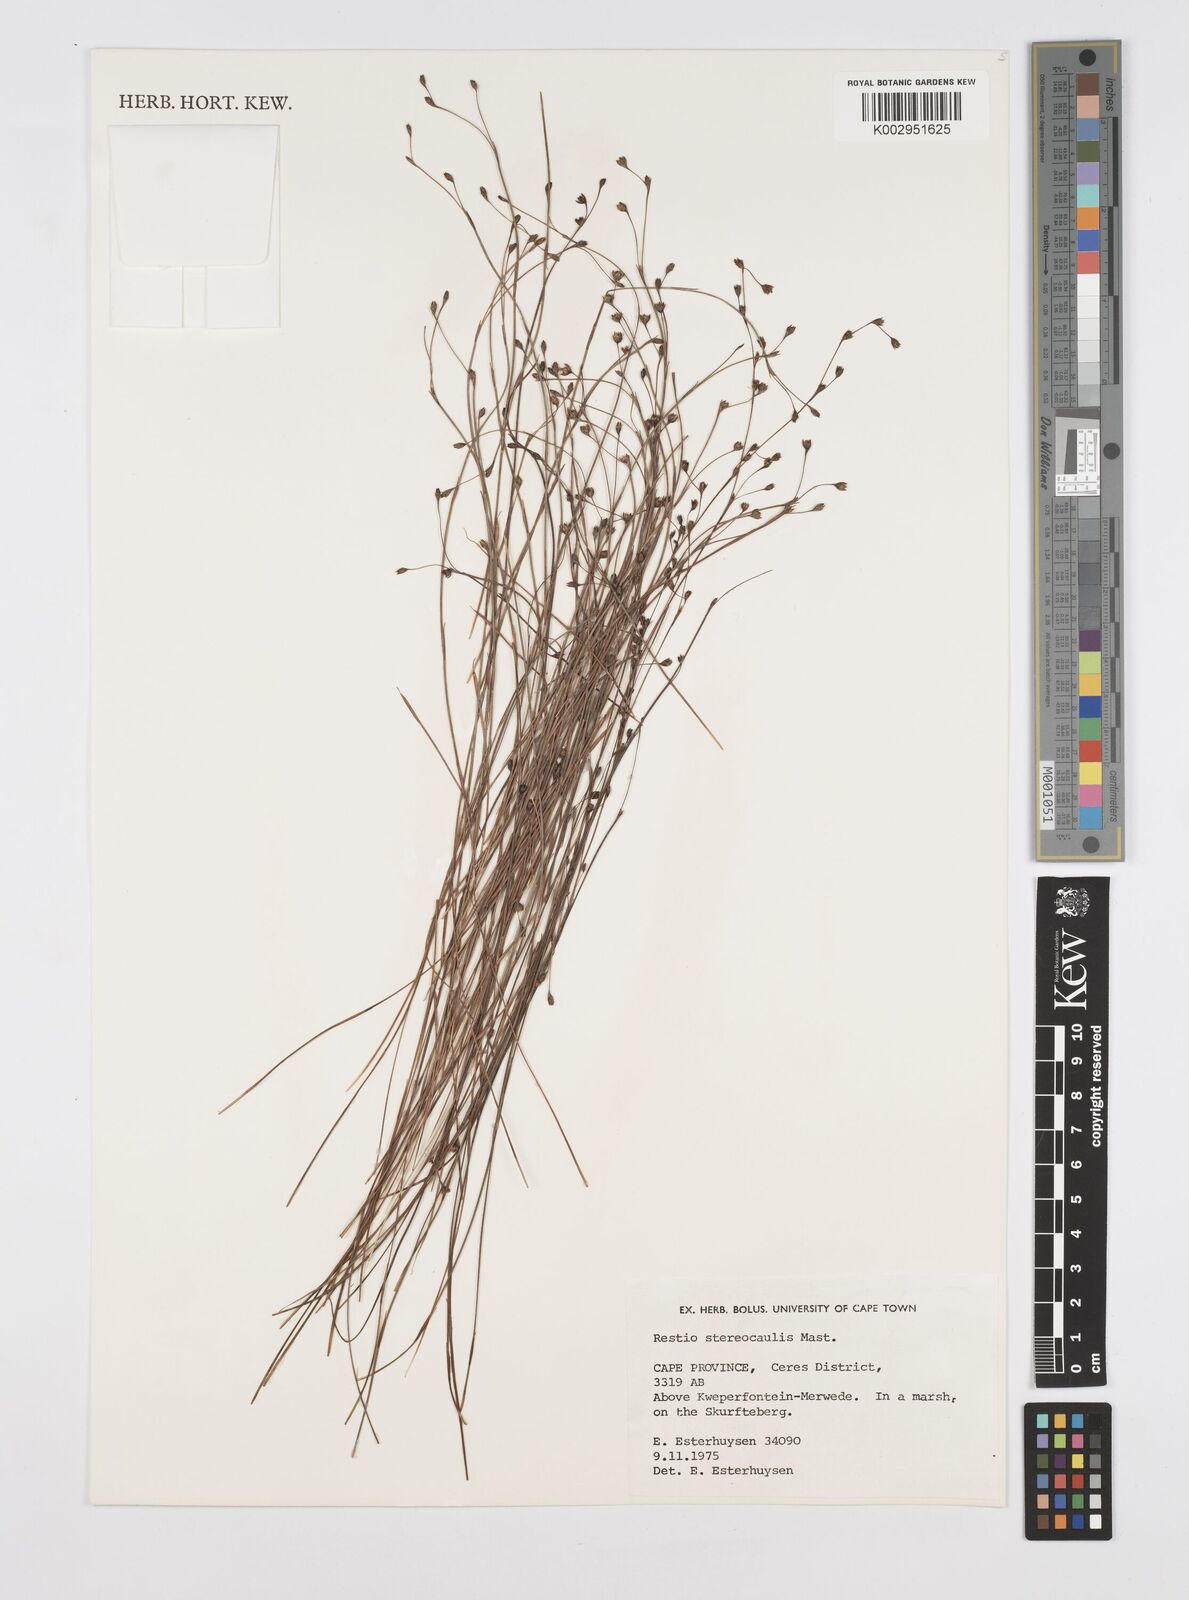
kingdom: Plantae
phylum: Tracheophyta
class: Liliopsida
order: Poales
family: Restionaceae
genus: Restio
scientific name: Restio stereocaulis
